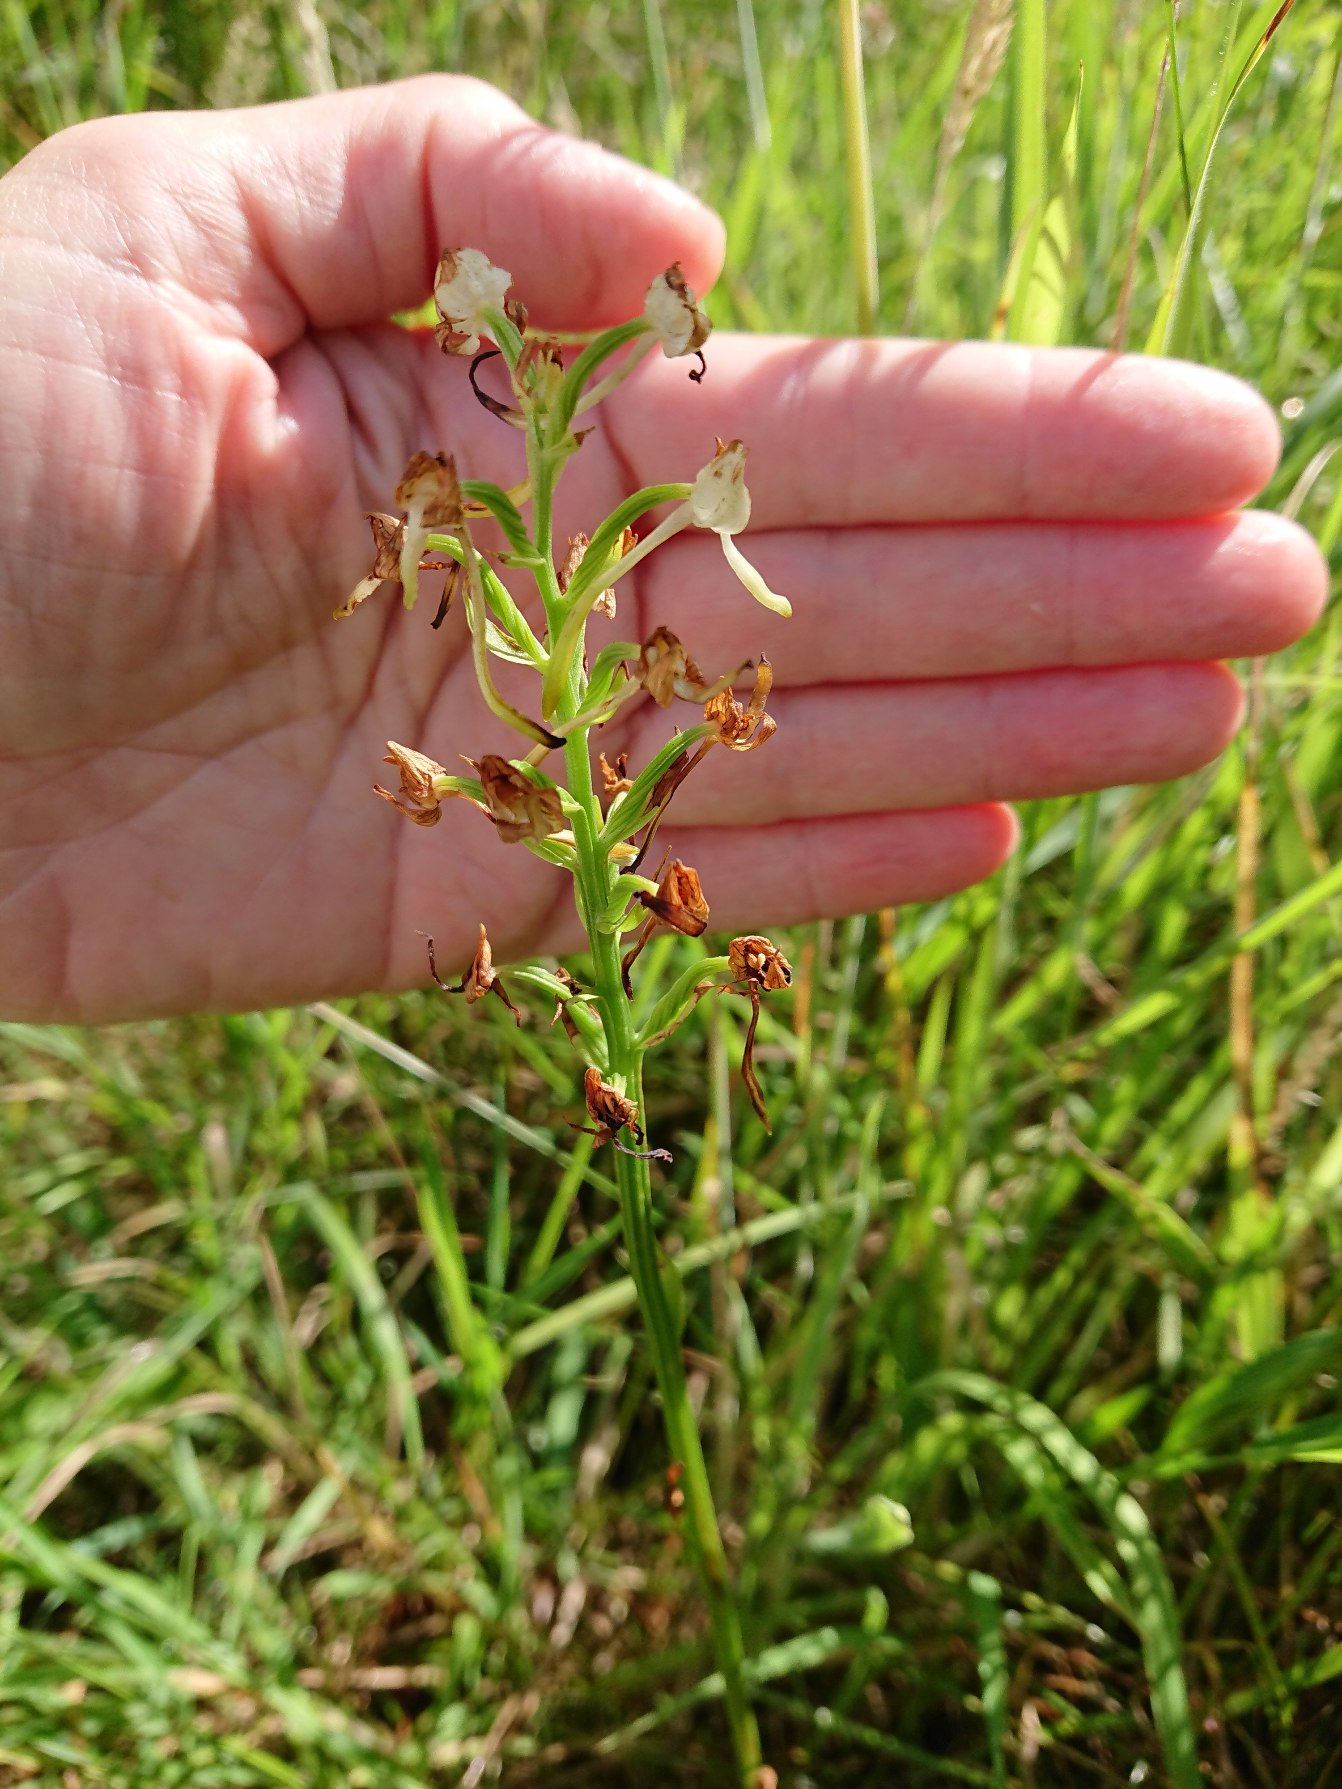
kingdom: Plantae
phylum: Tracheophyta
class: Liliopsida
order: Asparagales
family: Orchidaceae
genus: Platanthera
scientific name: Platanthera chlorantha
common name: Skov-gøgelilje
